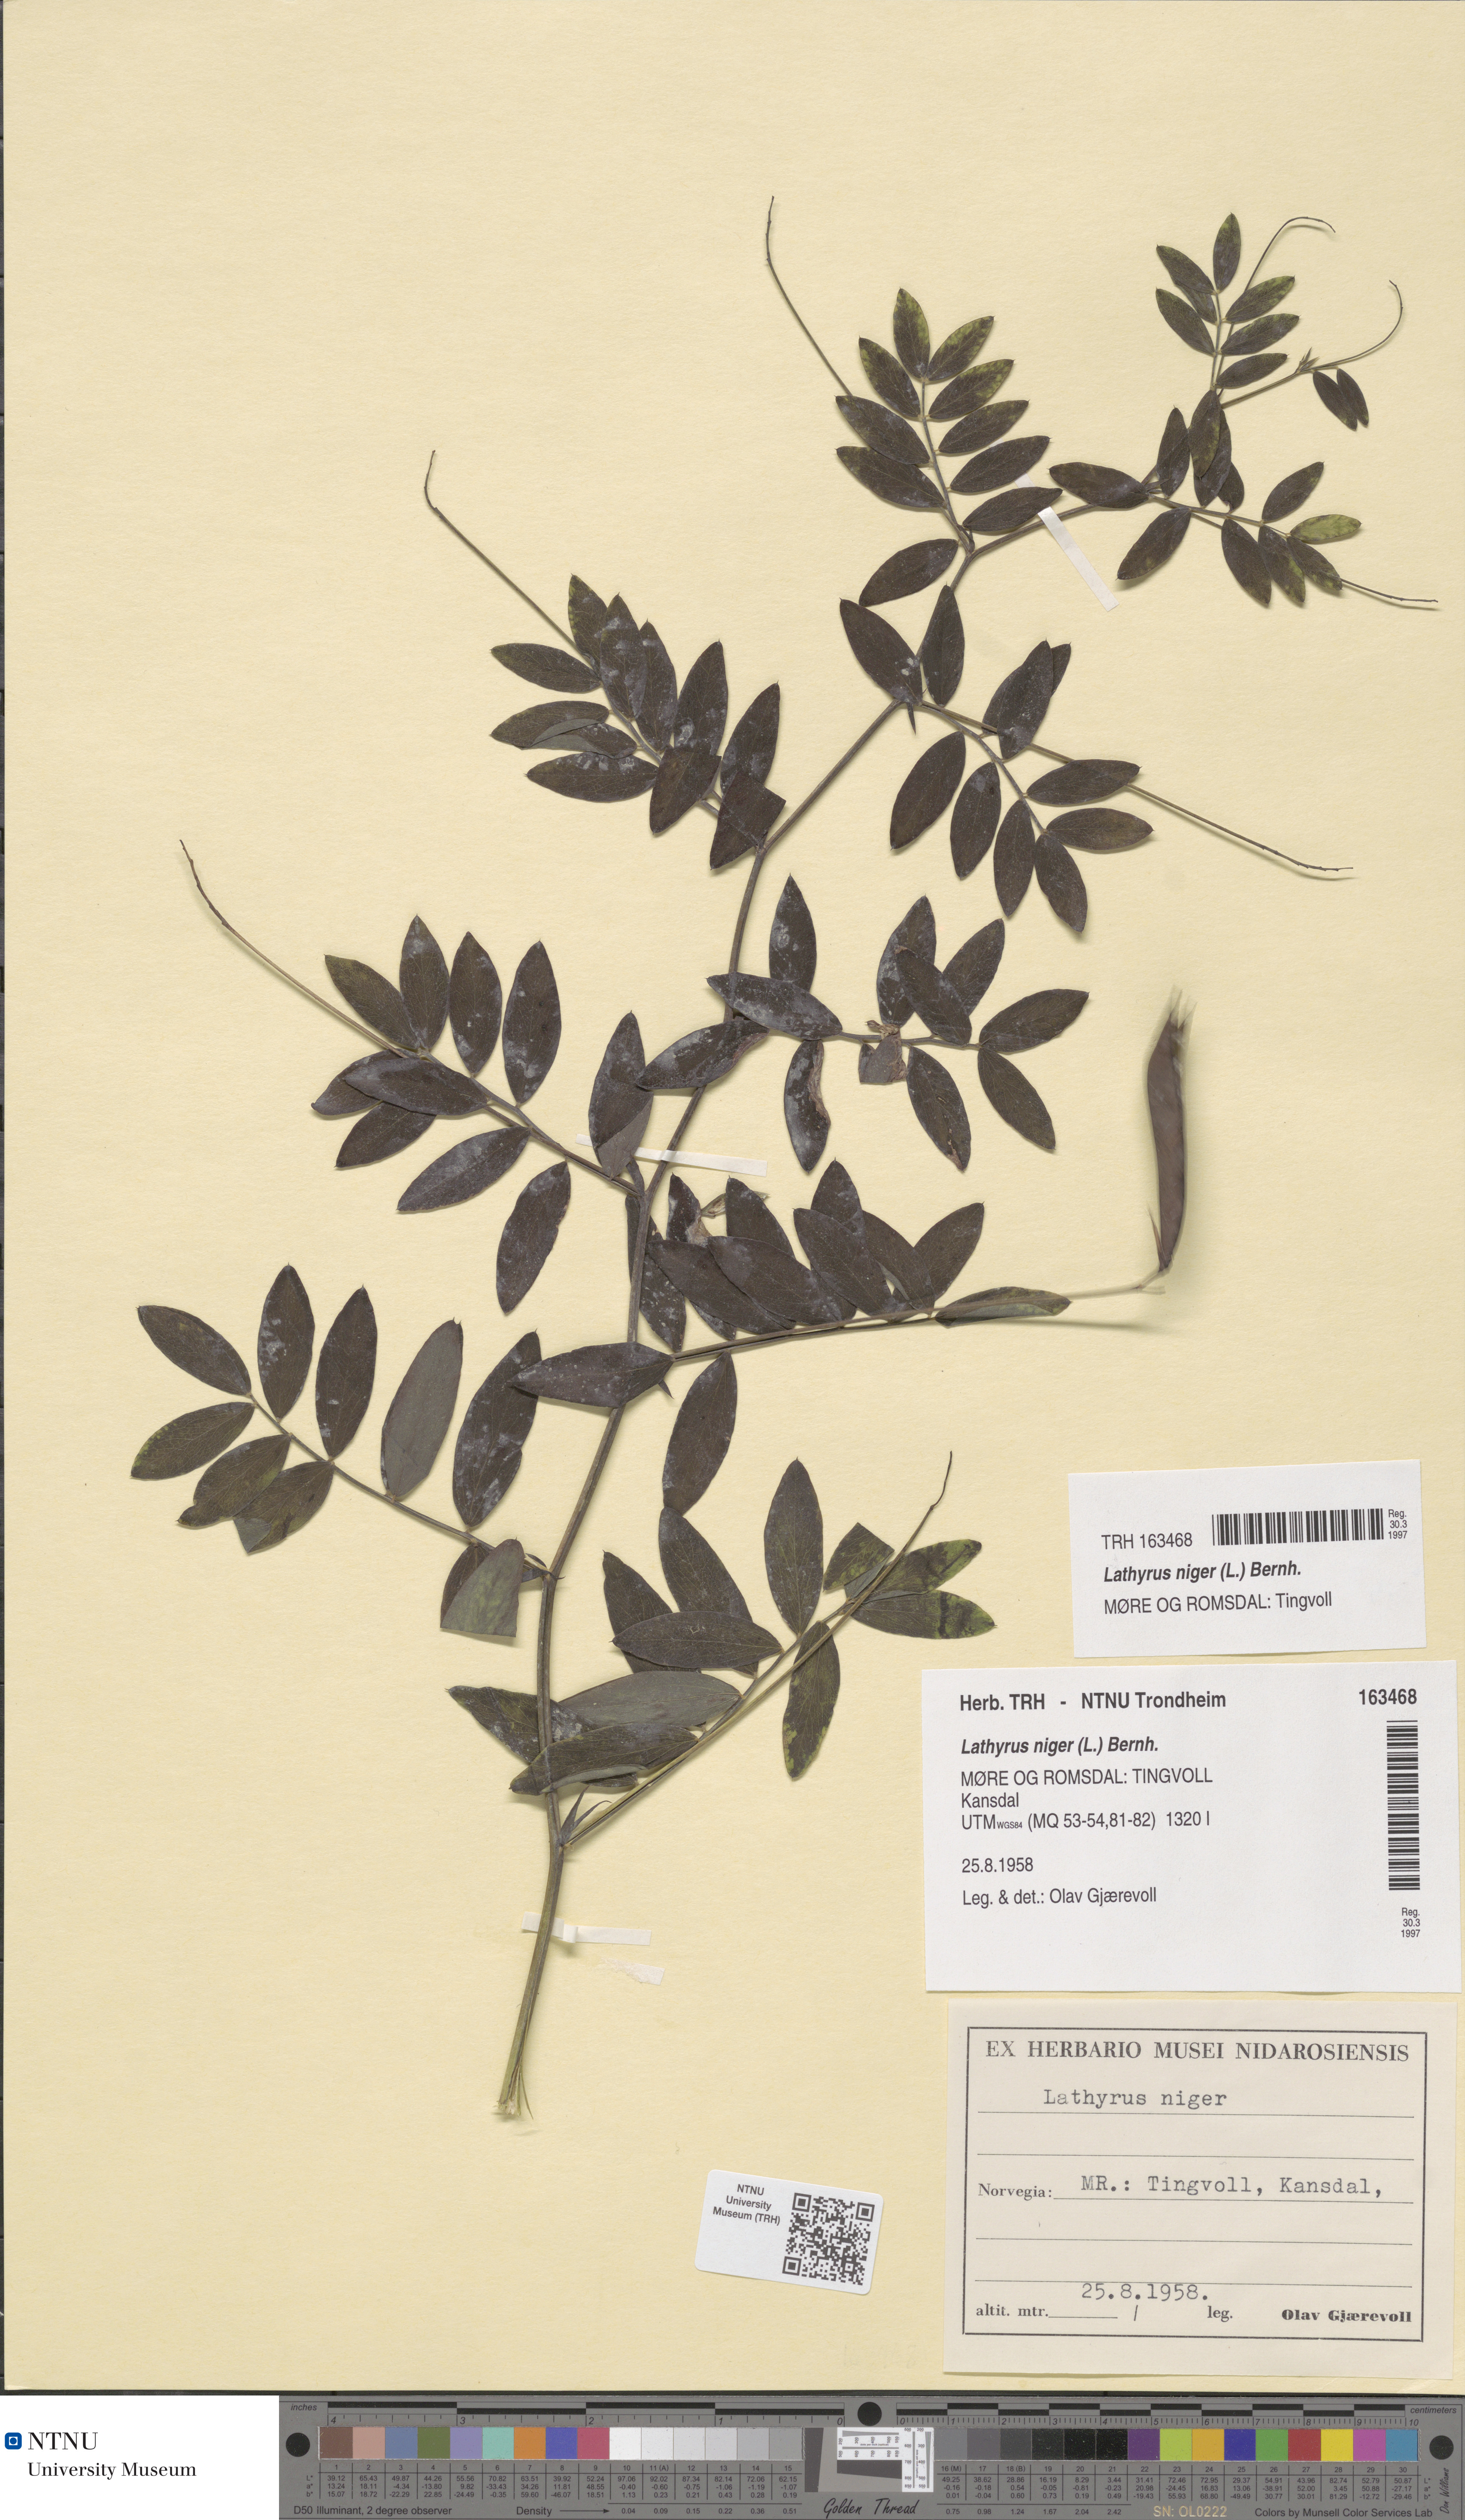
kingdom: Plantae
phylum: Tracheophyta
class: Magnoliopsida
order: Fabales
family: Fabaceae
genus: Lathyrus
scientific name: Lathyrus niger
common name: Black pea
